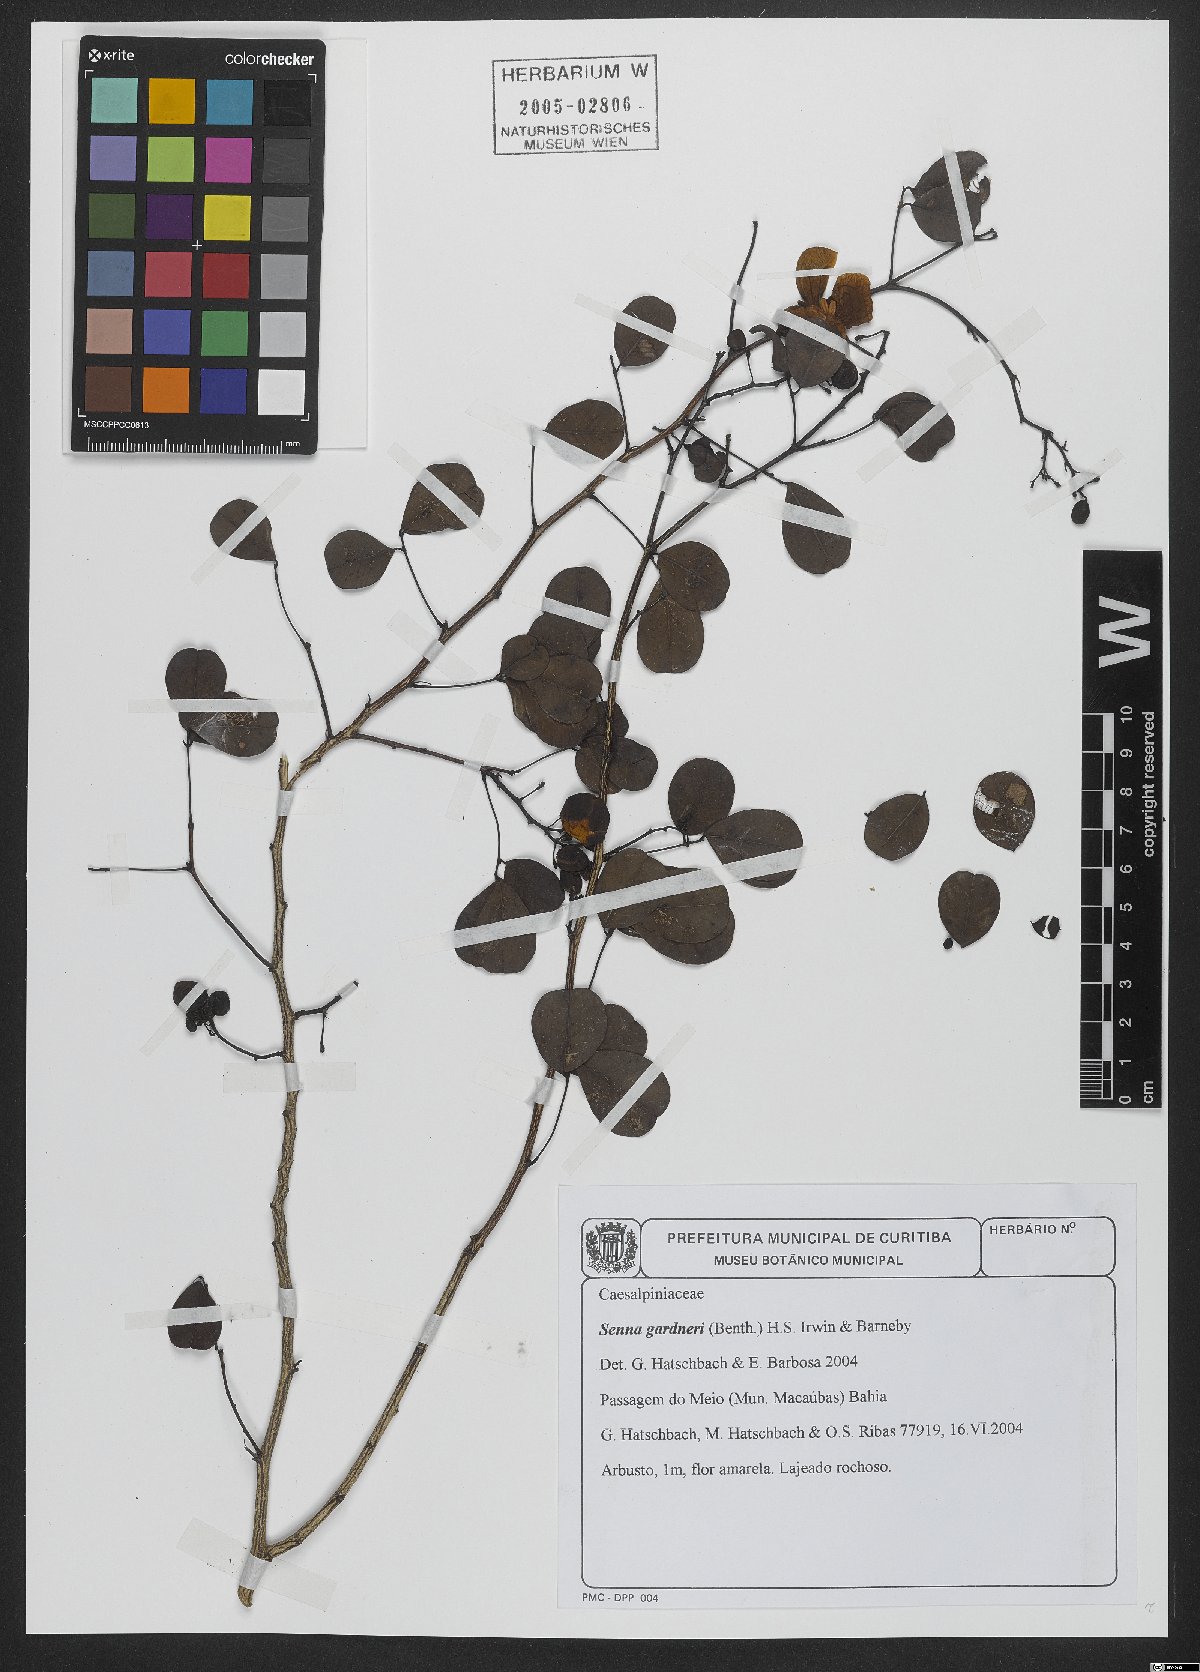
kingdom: Plantae
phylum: Tracheophyta
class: Magnoliopsida
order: Fabales
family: Fabaceae
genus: Senna
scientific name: Senna gardneri
